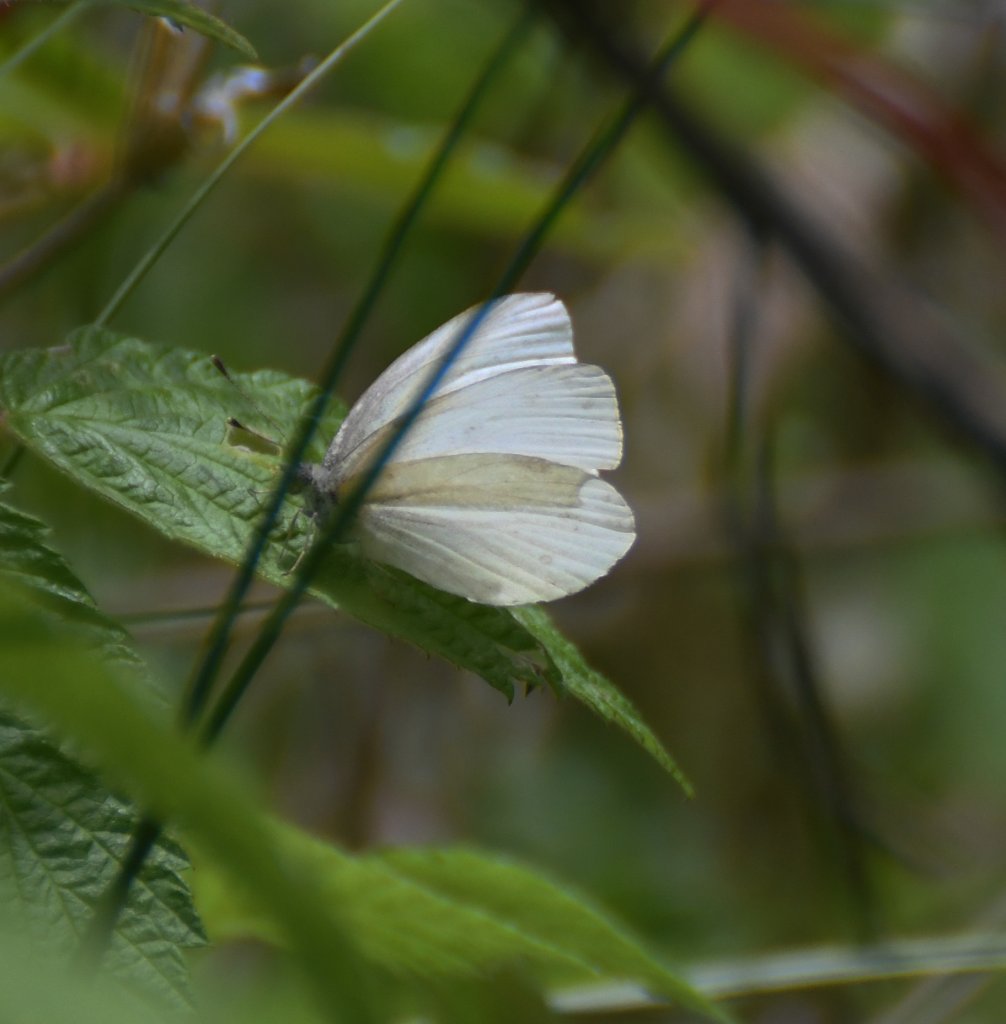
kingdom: Animalia
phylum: Arthropoda
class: Insecta
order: Lepidoptera
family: Pieridae
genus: Pieris
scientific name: Pieris virginiensis
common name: West Virginia White
